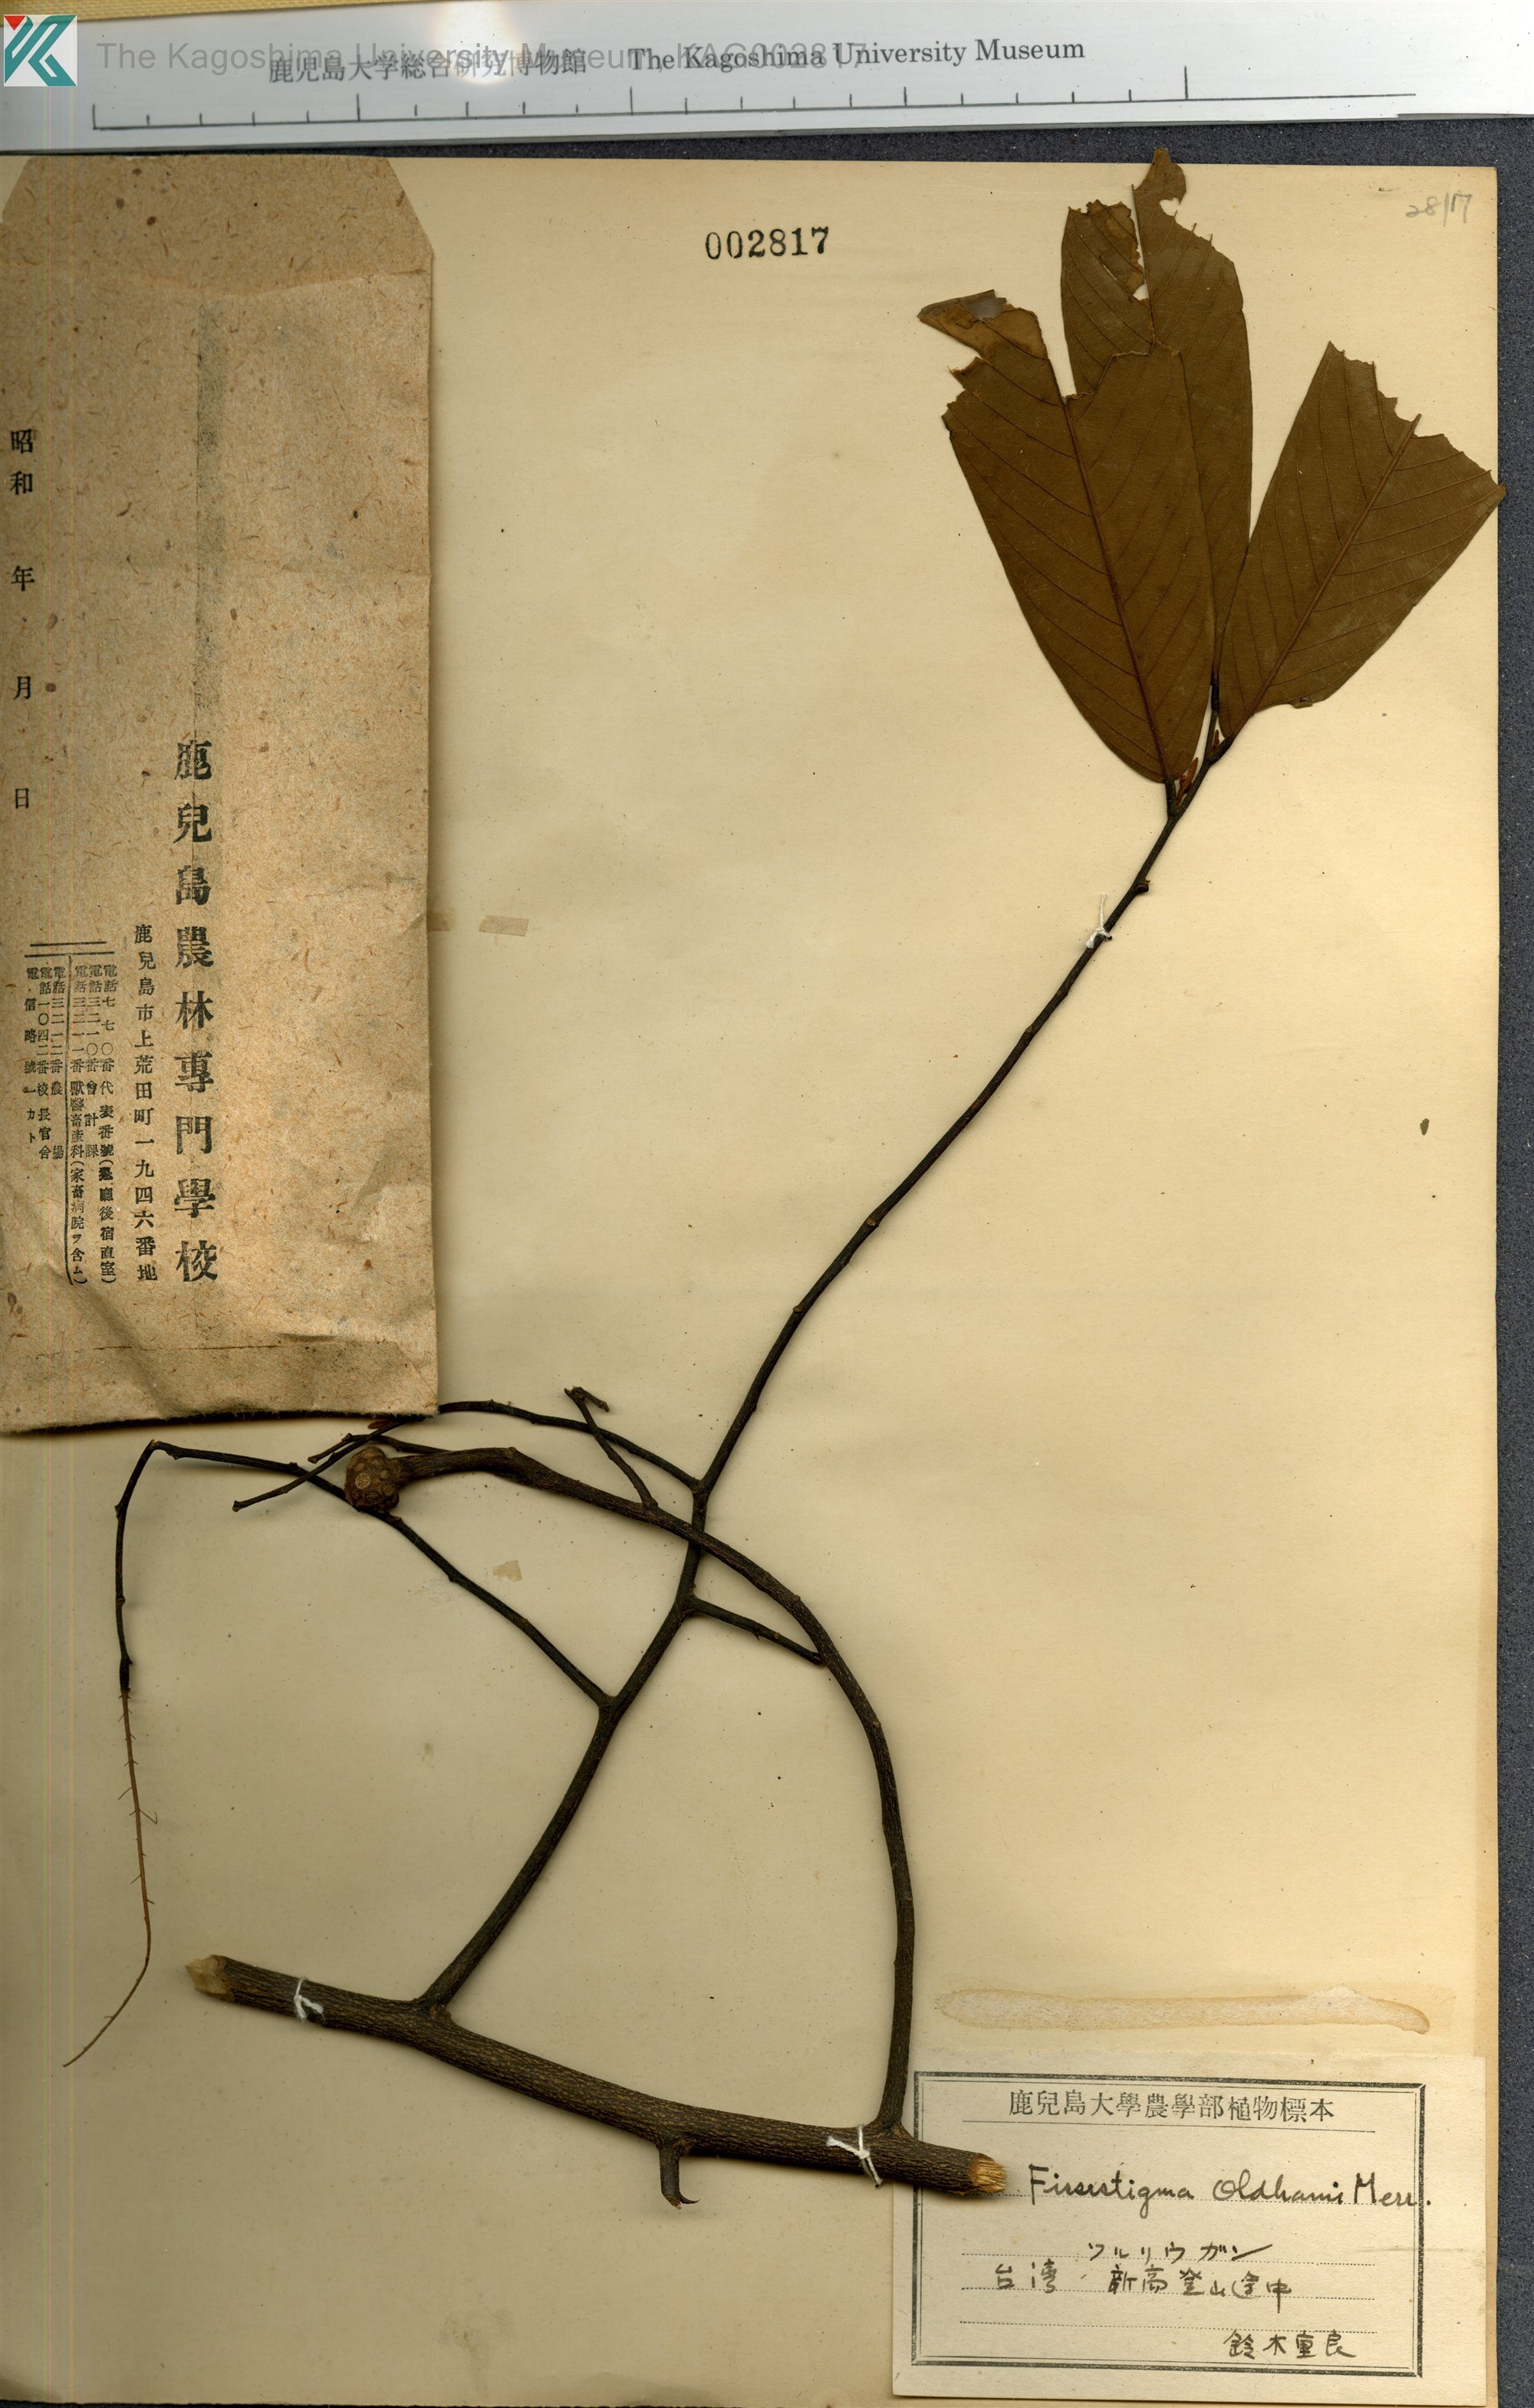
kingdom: Plantae
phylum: Tracheophyta
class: Magnoliopsida
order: Magnoliales
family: Annonaceae
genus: Fissistigma
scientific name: Fissistigma oldhamii
